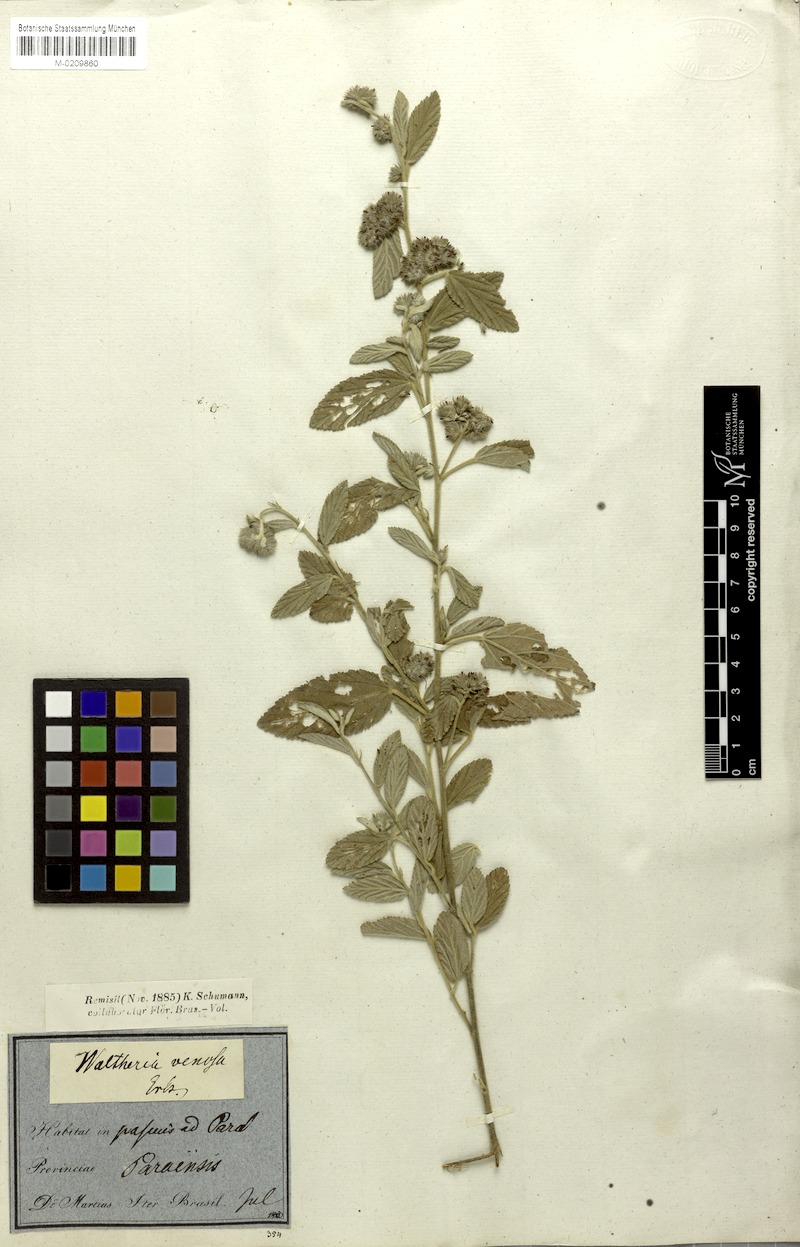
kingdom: Plantae
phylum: Tracheophyta
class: Magnoliopsida
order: Malvales
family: Malvaceae
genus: Waltheria
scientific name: Waltheria indica
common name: Leather-coat
